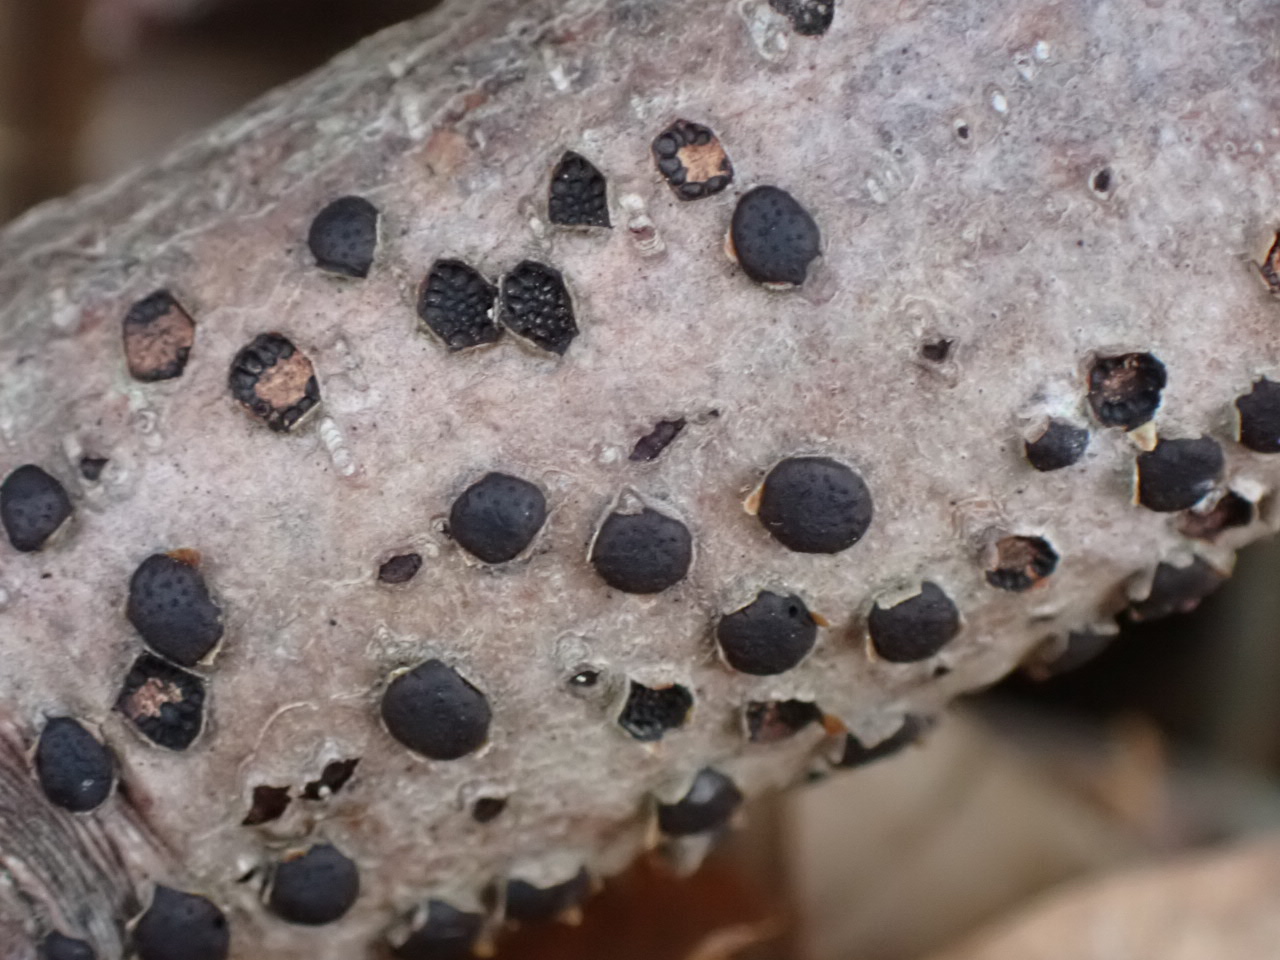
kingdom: Fungi
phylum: Ascomycota
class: Sordariomycetes
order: Xylariales
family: Diatrypaceae
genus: Diatrype
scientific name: Diatrype disciformis
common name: kant-kulskorpe
